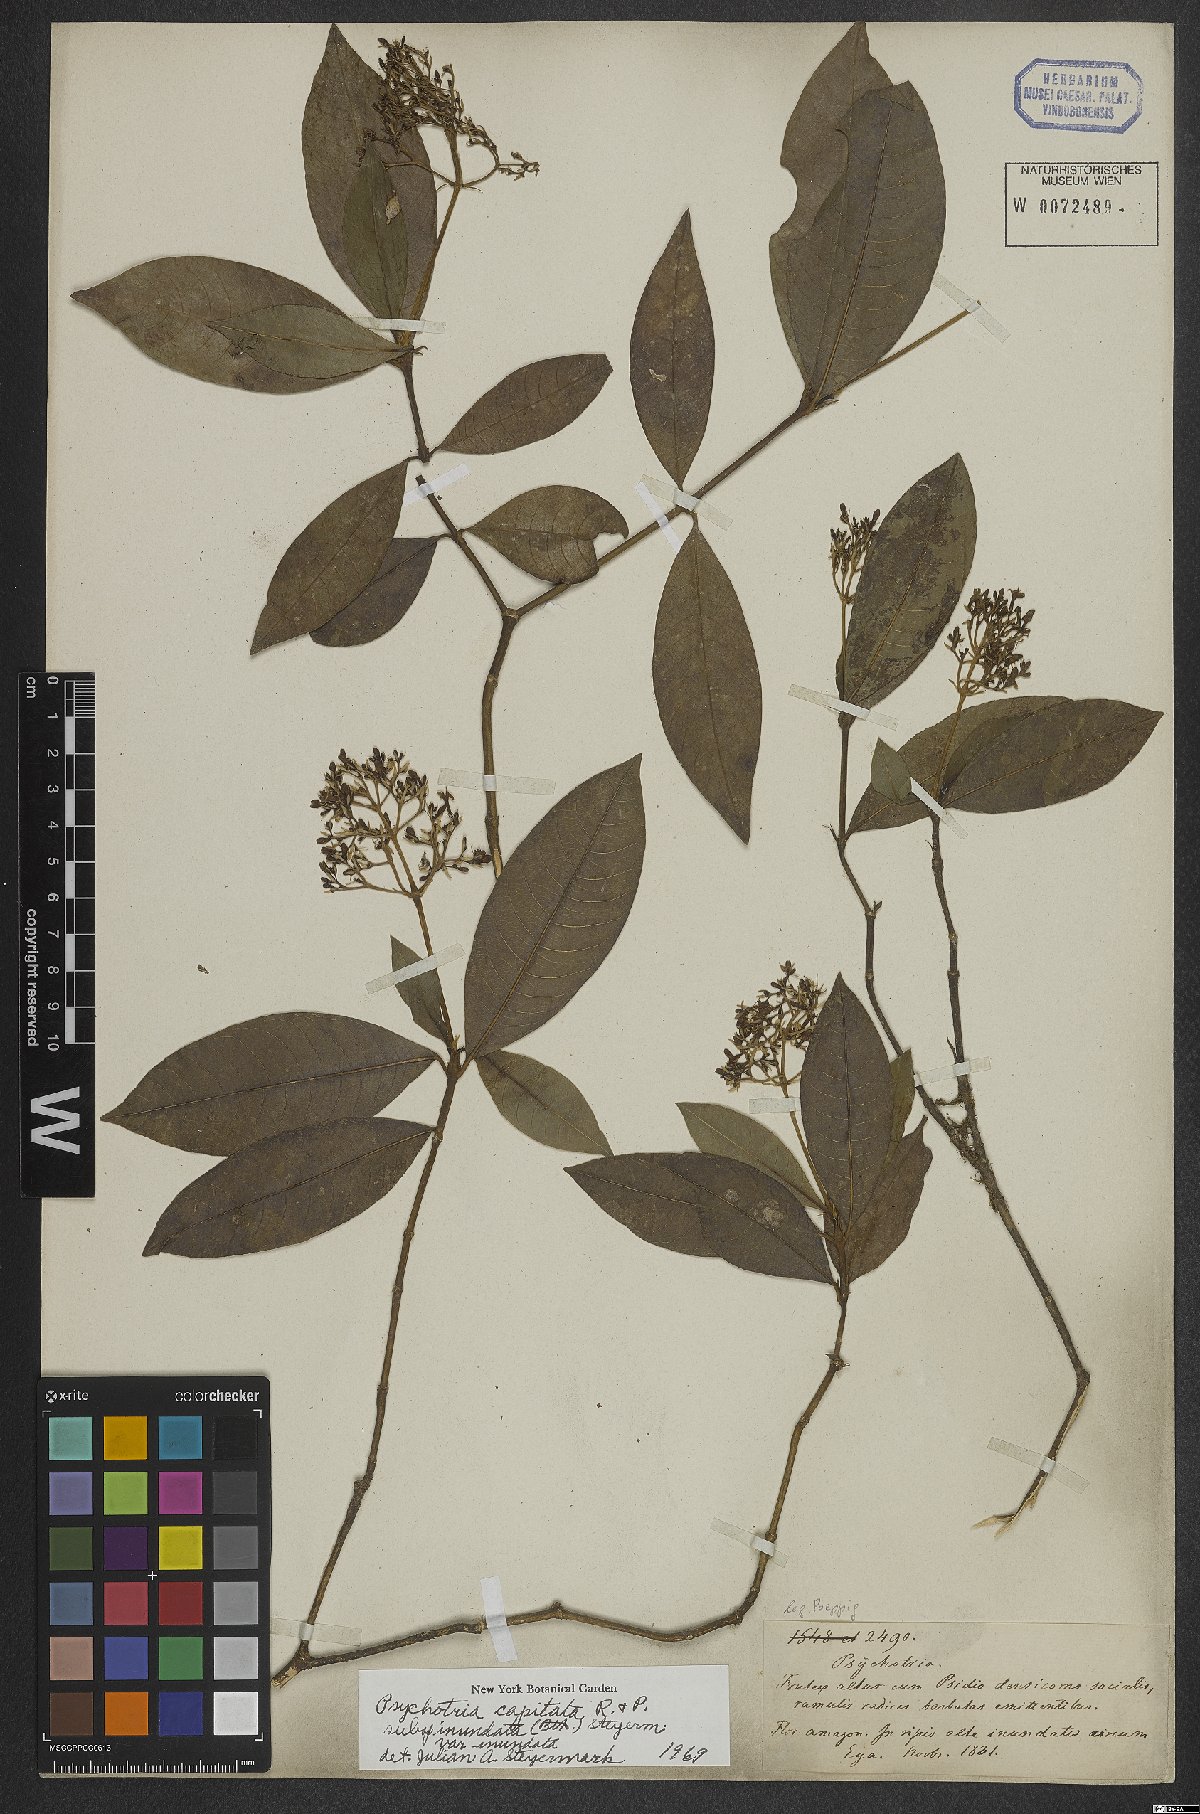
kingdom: Plantae
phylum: Tracheophyta
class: Magnoliopsida
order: Gentianales
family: Rubiaceae
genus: Palicourea
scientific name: Palicourea violacea
